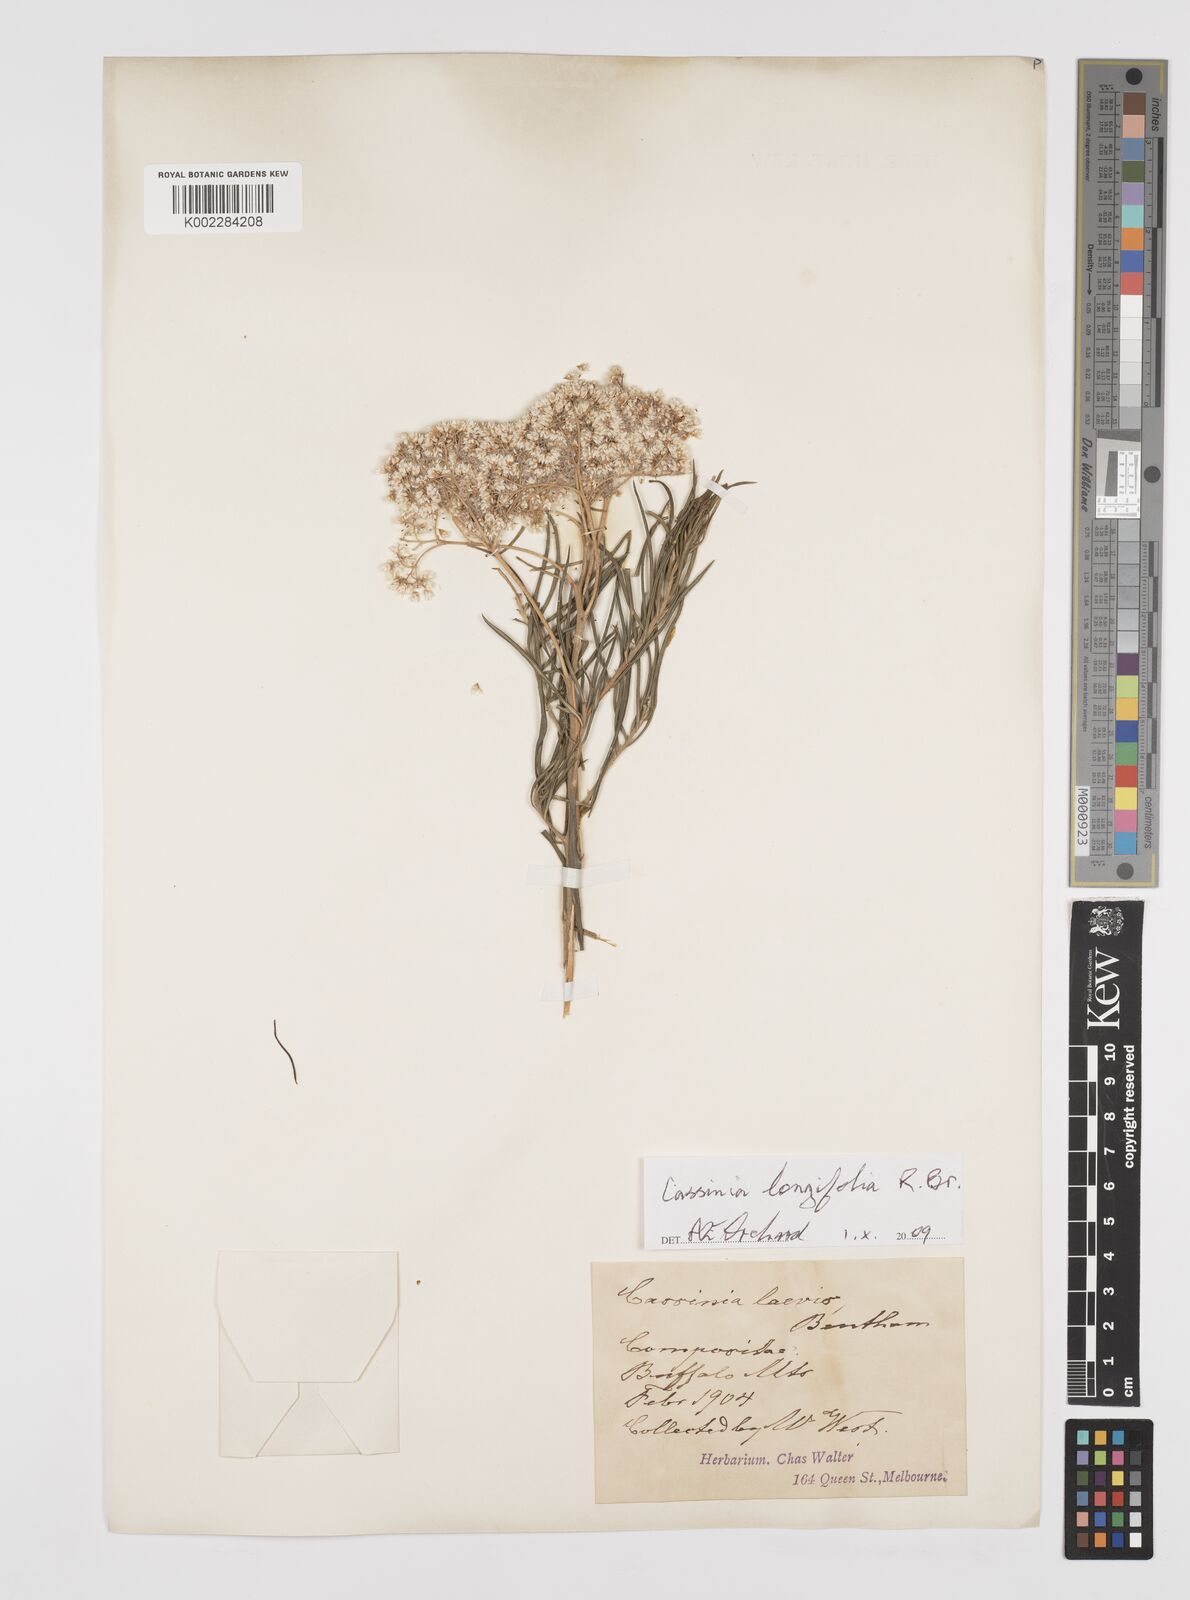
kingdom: Plantae
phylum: Tracheophyta
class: Magnoliopsida
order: Asterales
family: Asteraceae
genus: Cassinia
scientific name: Cassinia longifolia
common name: Longleaf-dogwood
